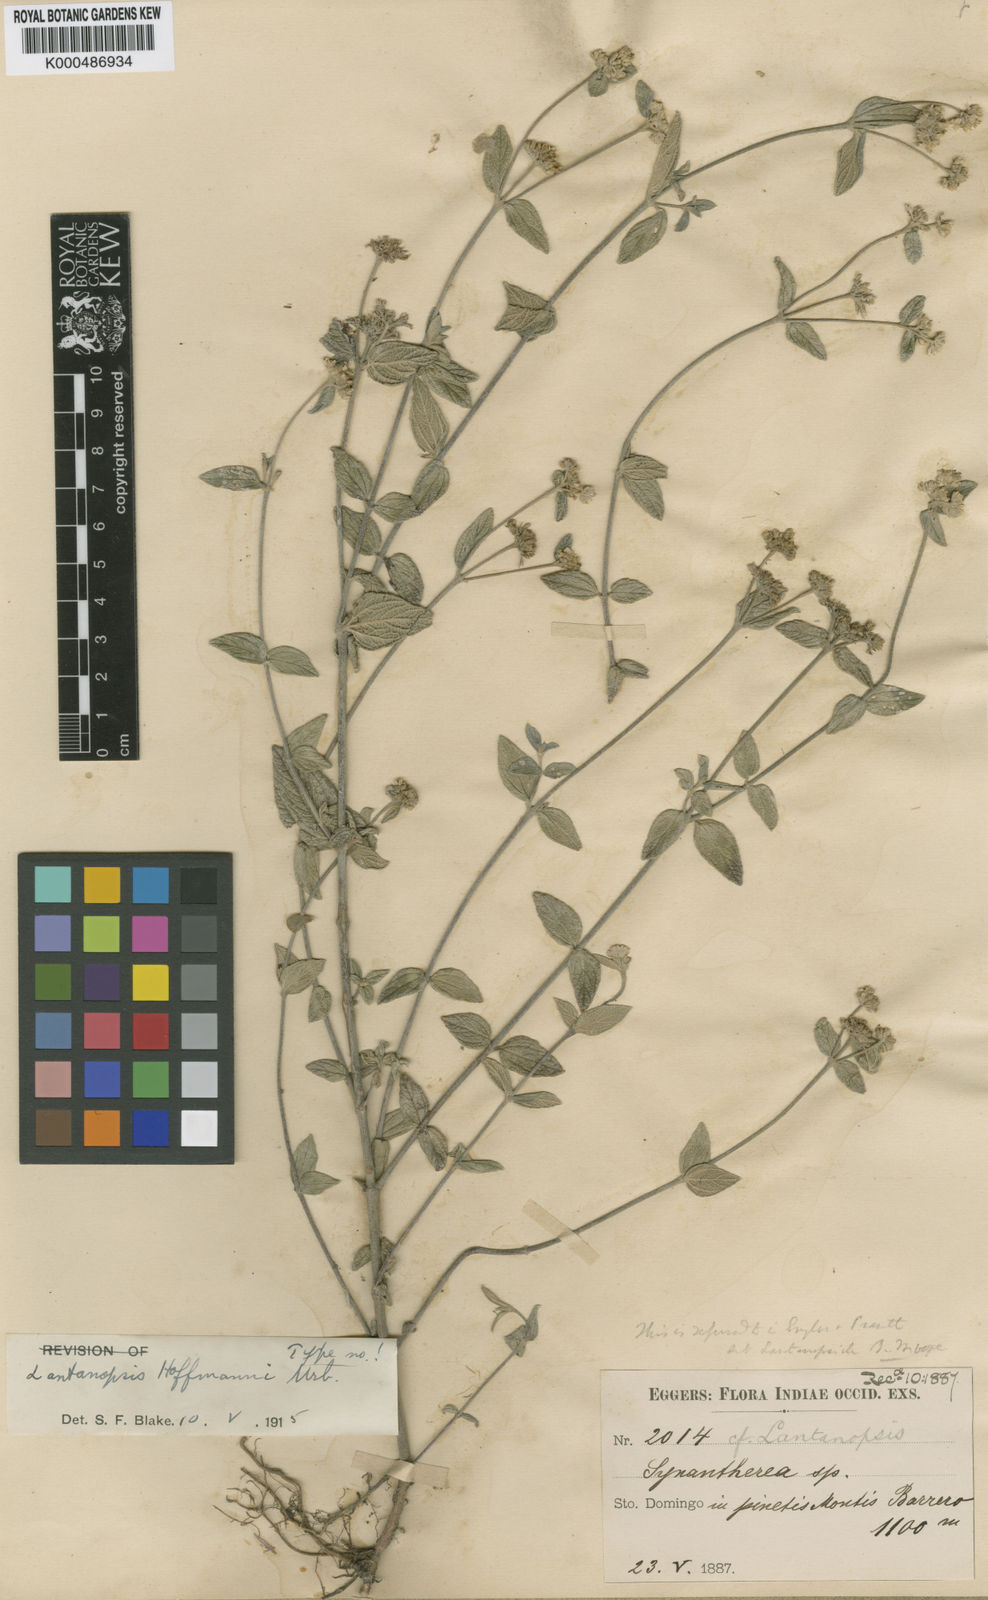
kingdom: Plantae
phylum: Tracheophyta
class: Magnoliopsida
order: Asterales
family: Asteraceae
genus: Lantanopsis
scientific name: Lantanopsis hoffmannii
